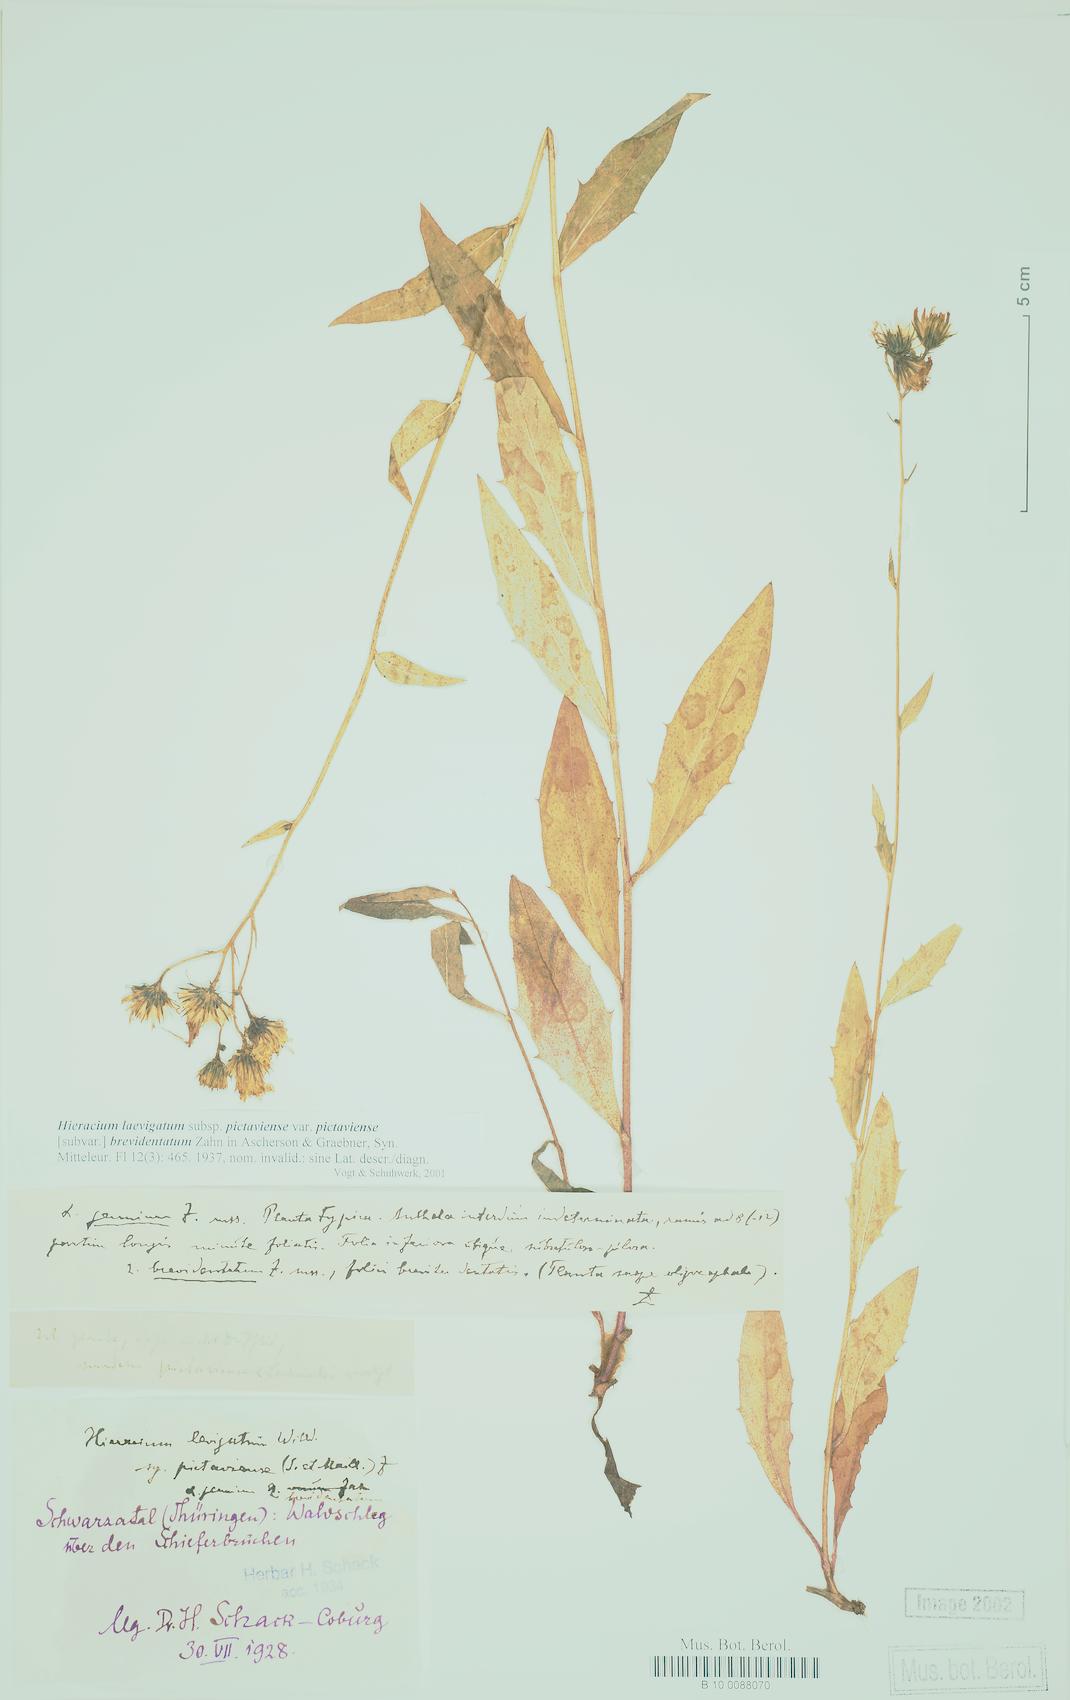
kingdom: Plantae
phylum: Tracheophyta
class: Magnoliopsida
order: Asterales
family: Asteraceae
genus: Hieracium
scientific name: Hieracium laevigatum
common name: Smooth hawkweed
